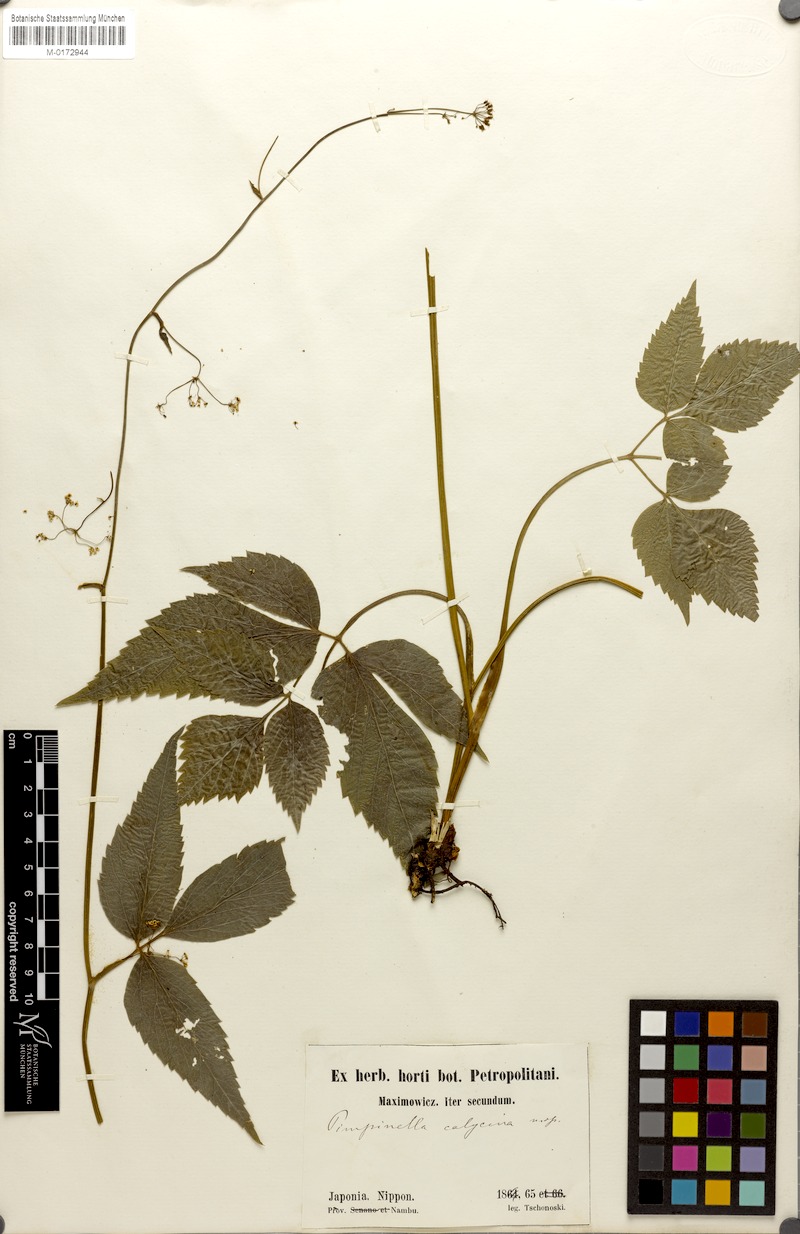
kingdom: Plantae
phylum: Tracheophyta
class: Magnoliopsida
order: Apiales
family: Apiaceae
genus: Spuriopimpinella
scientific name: Spuriopimpinella calycina
